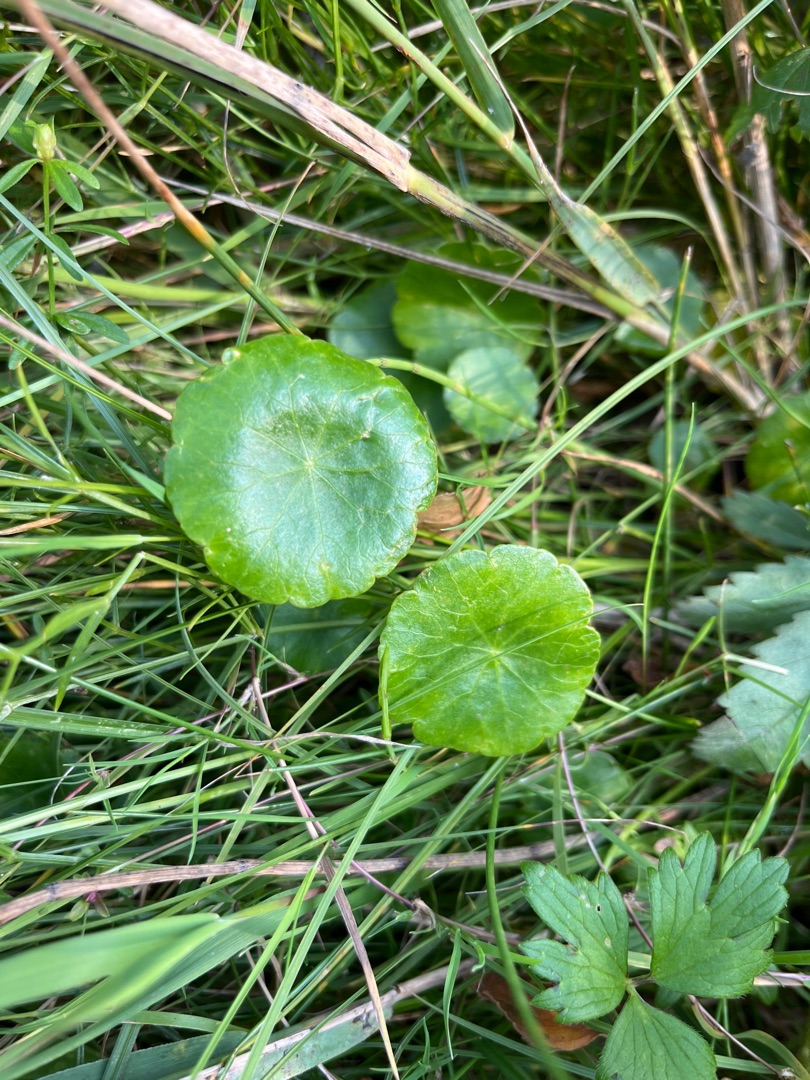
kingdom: Plantae
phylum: Tracheophyta
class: Magnoliopsida
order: Apiales
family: Araliaceae
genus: Hydrocotyle
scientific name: Hydrocotyle vulgaris
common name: Vandnavle
